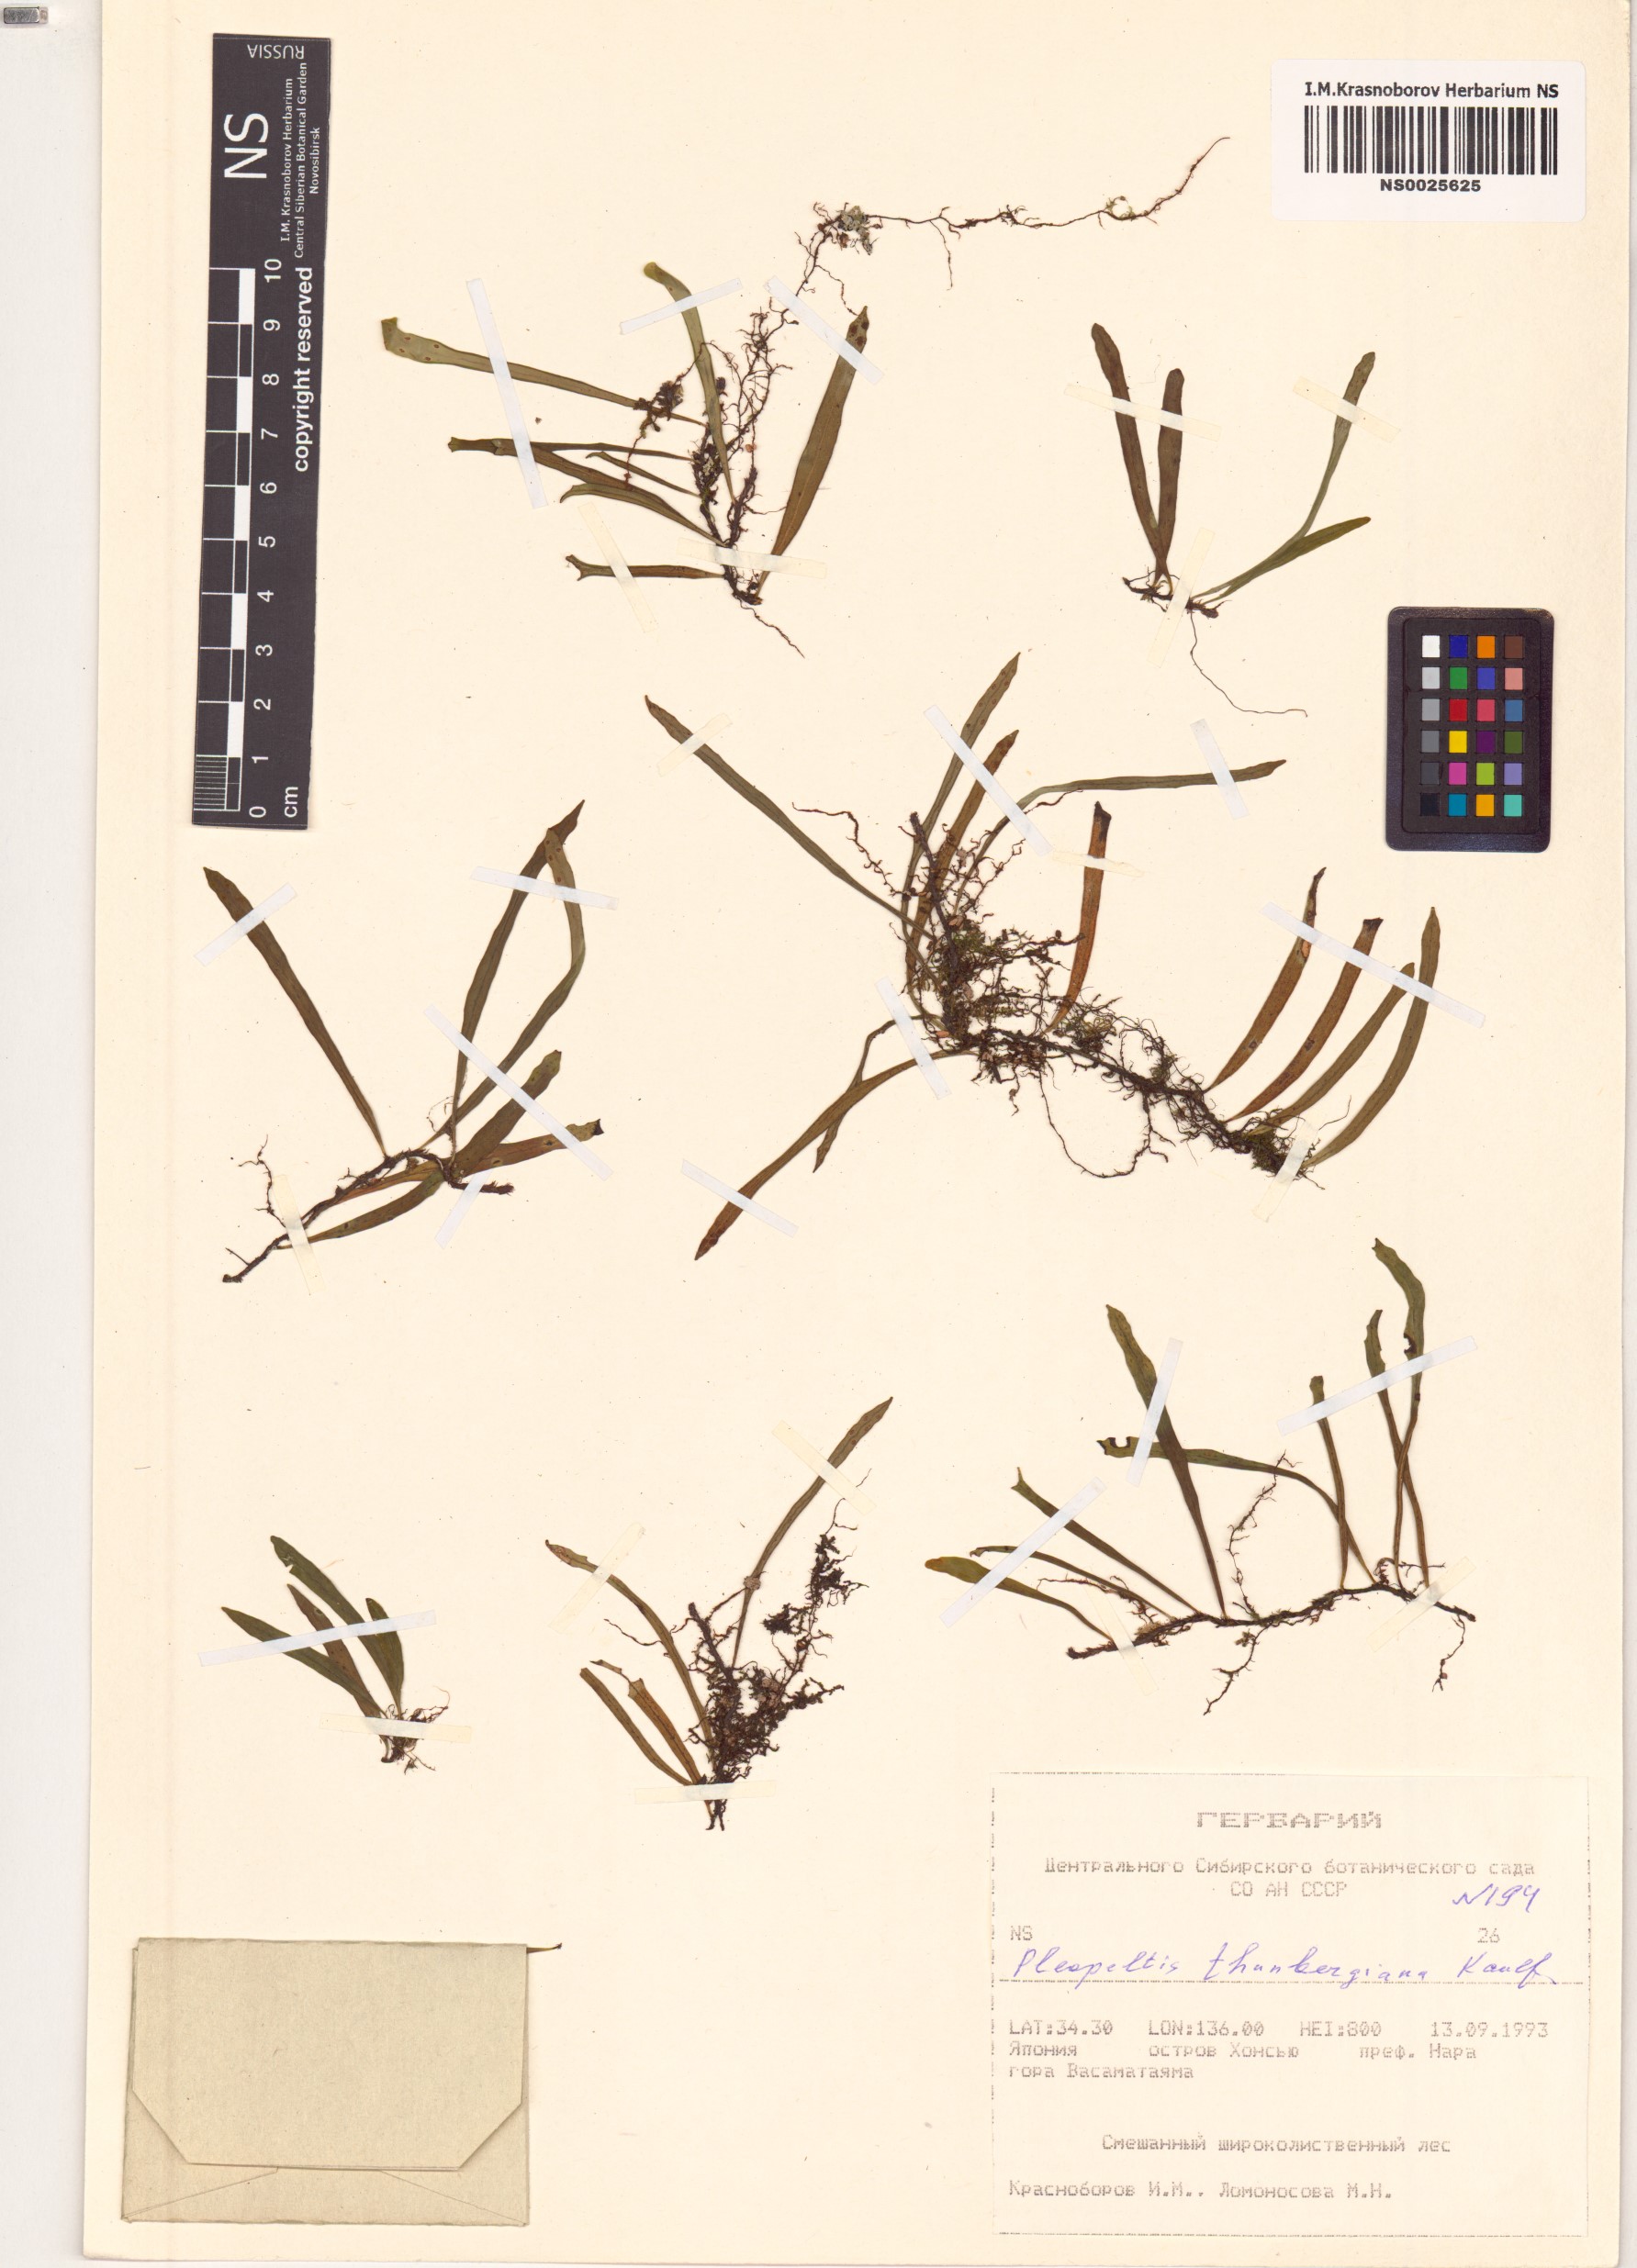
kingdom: Plantae
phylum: Tracheophyta
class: Polypodiopsida
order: Polypodiales
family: Polypodiaceae
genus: Lepisorus
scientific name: Lepisorus thunbergianus
